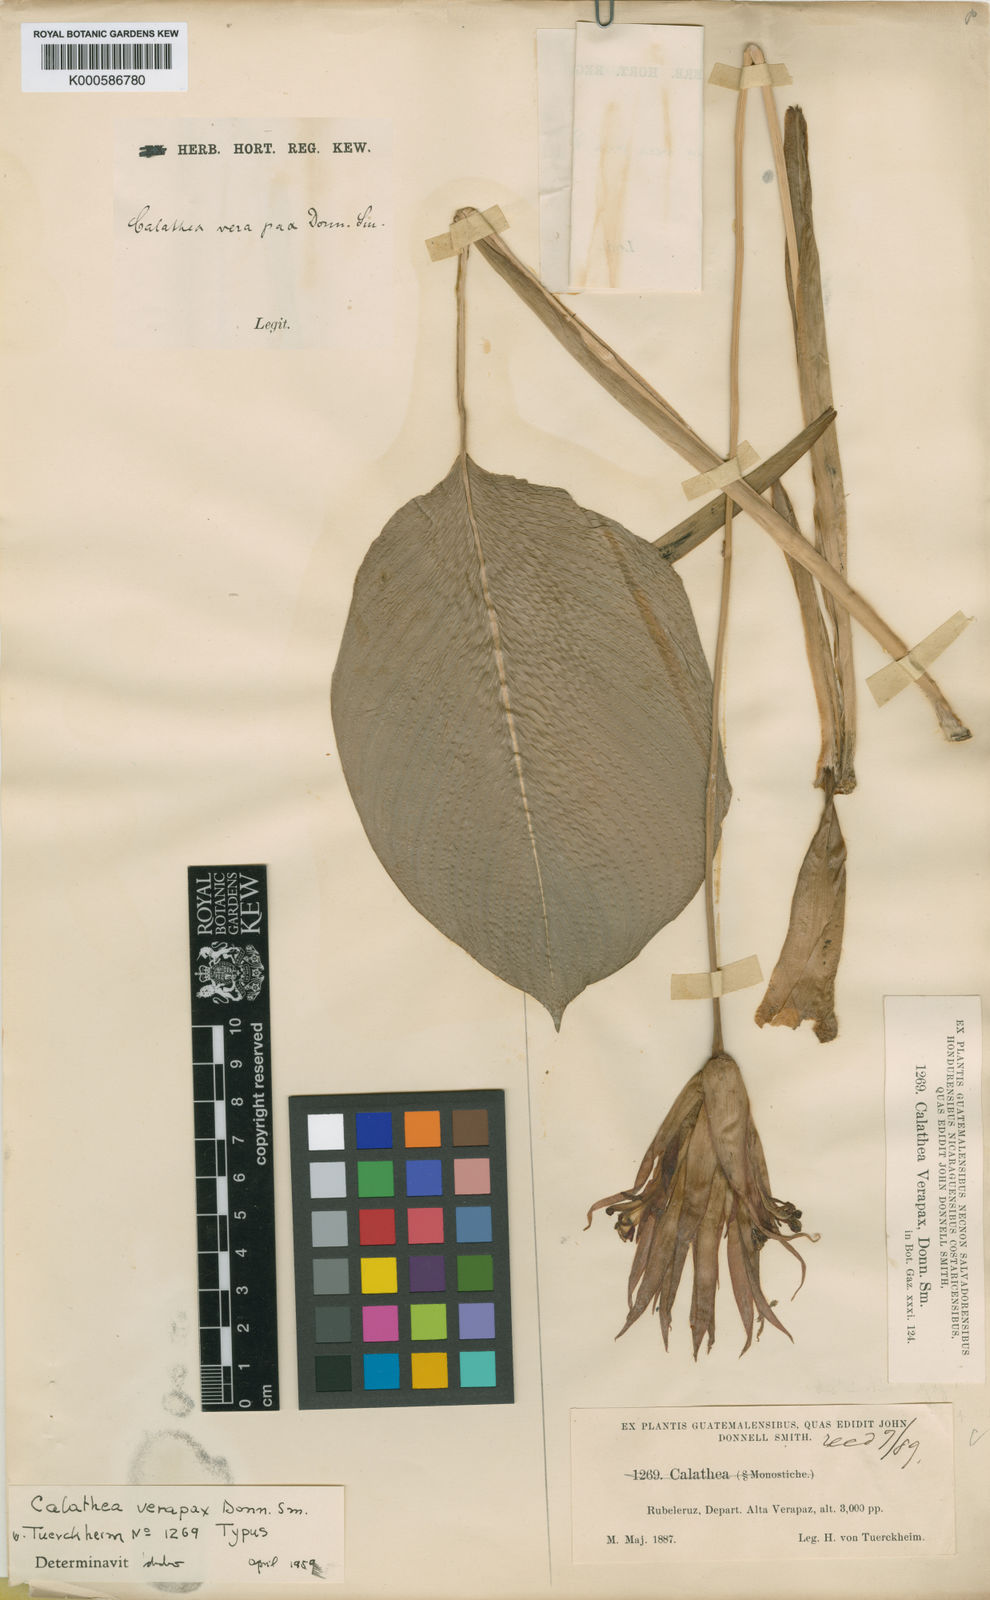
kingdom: Plantae
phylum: Tracheophyta
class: Liliopsida
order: Zingiberales
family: Marantaceae
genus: Goeppertia
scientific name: Goeppertia verapax
